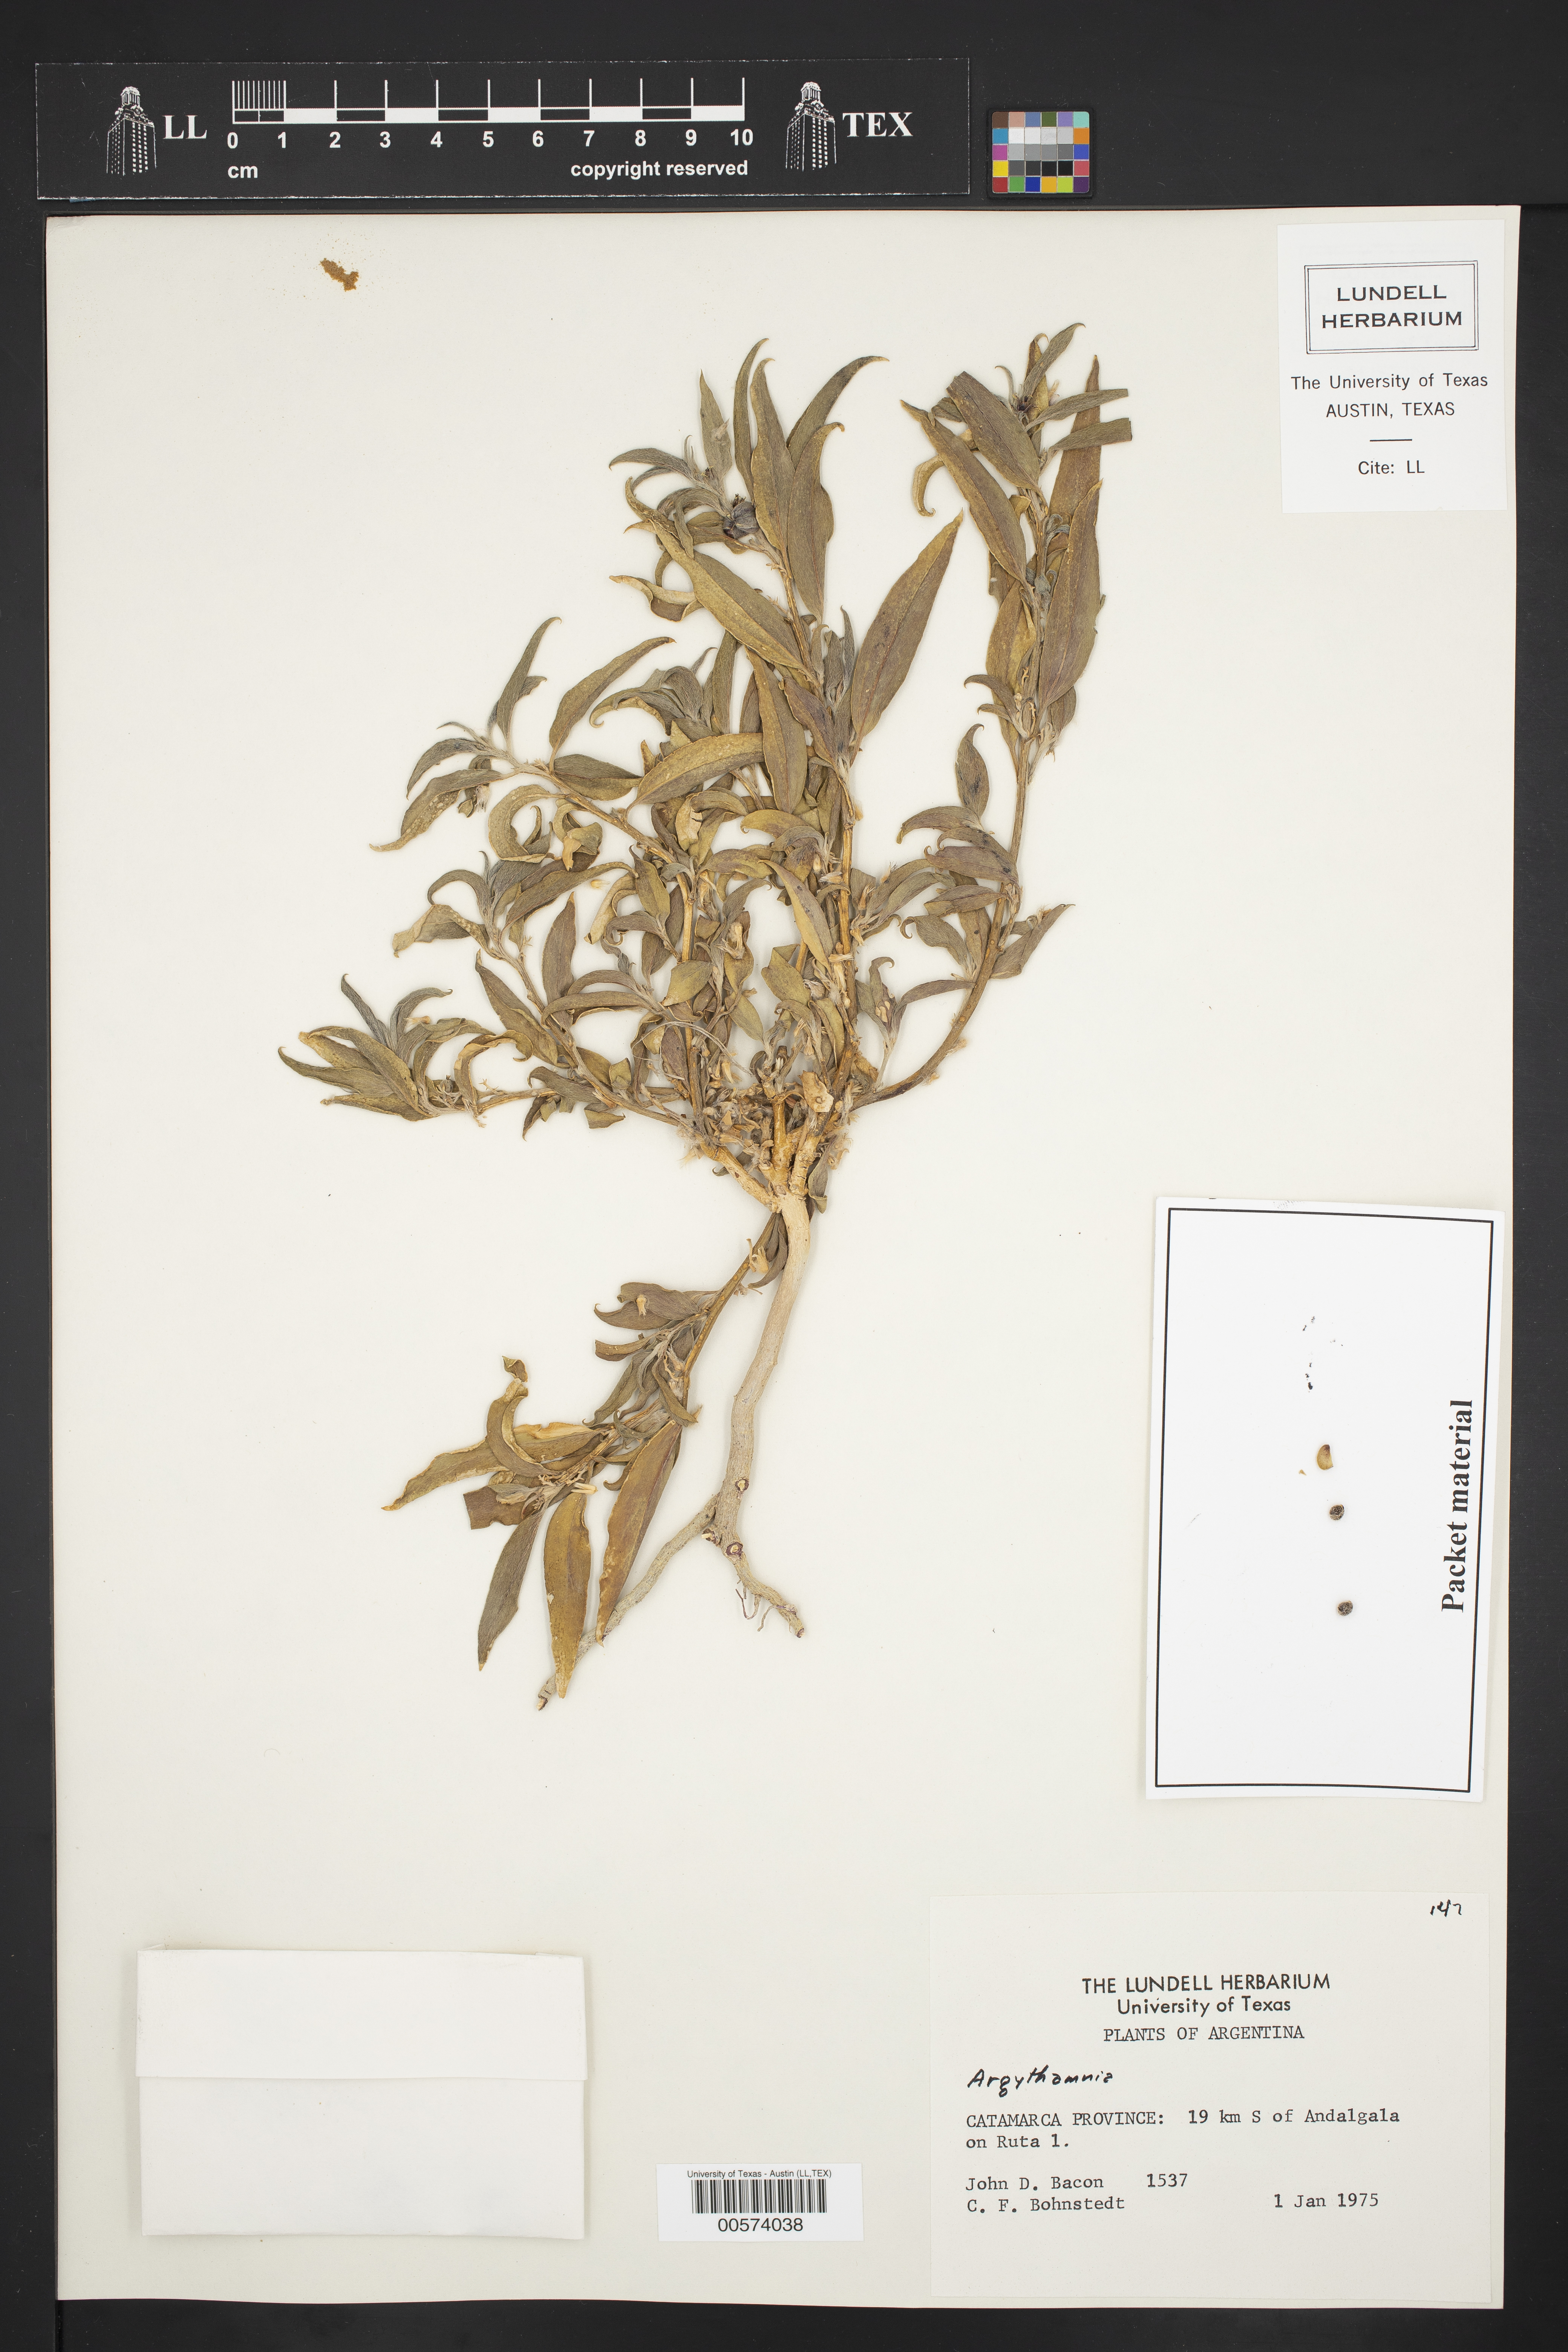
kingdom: Plantae
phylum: Tracheophyta
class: Magnoliopsida
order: Malpighiales
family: Euphorbiaceae
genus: Argythamnia
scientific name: Argythamnia
